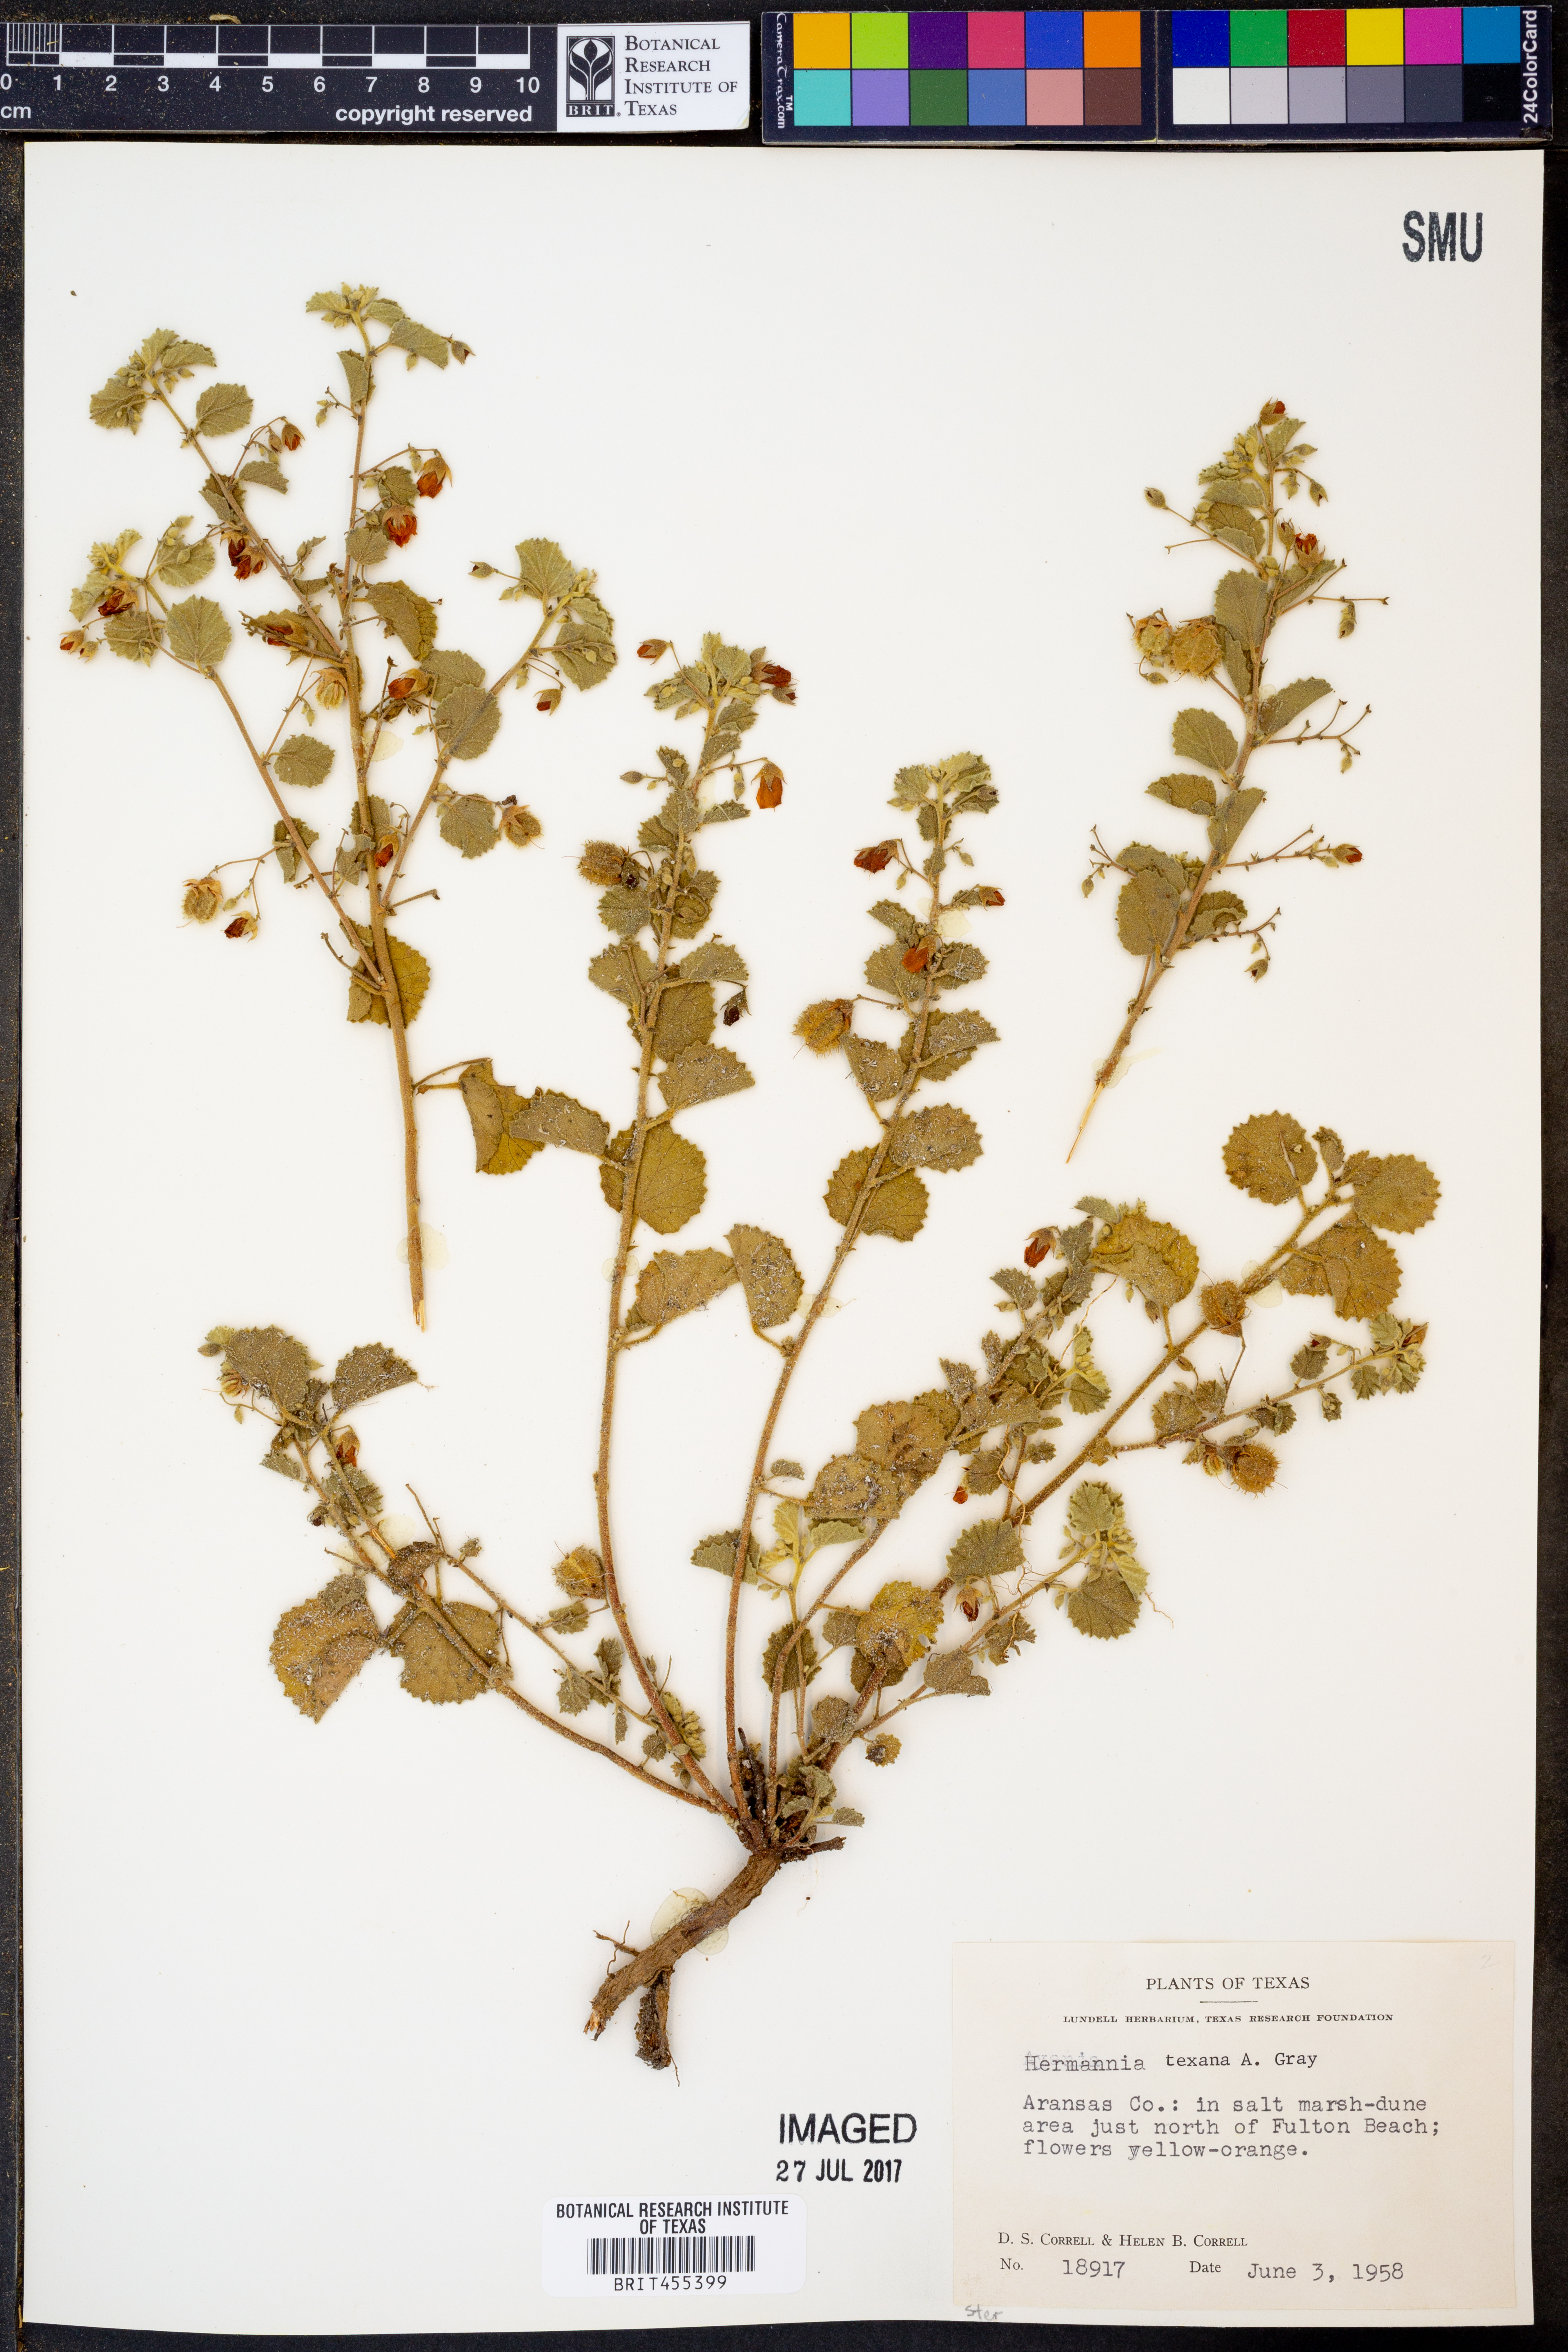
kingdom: Plantae
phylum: Tracheophyta
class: Magnoliopsida
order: Malvales
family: Malvaceae
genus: Hermannia
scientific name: Hermannia texana
